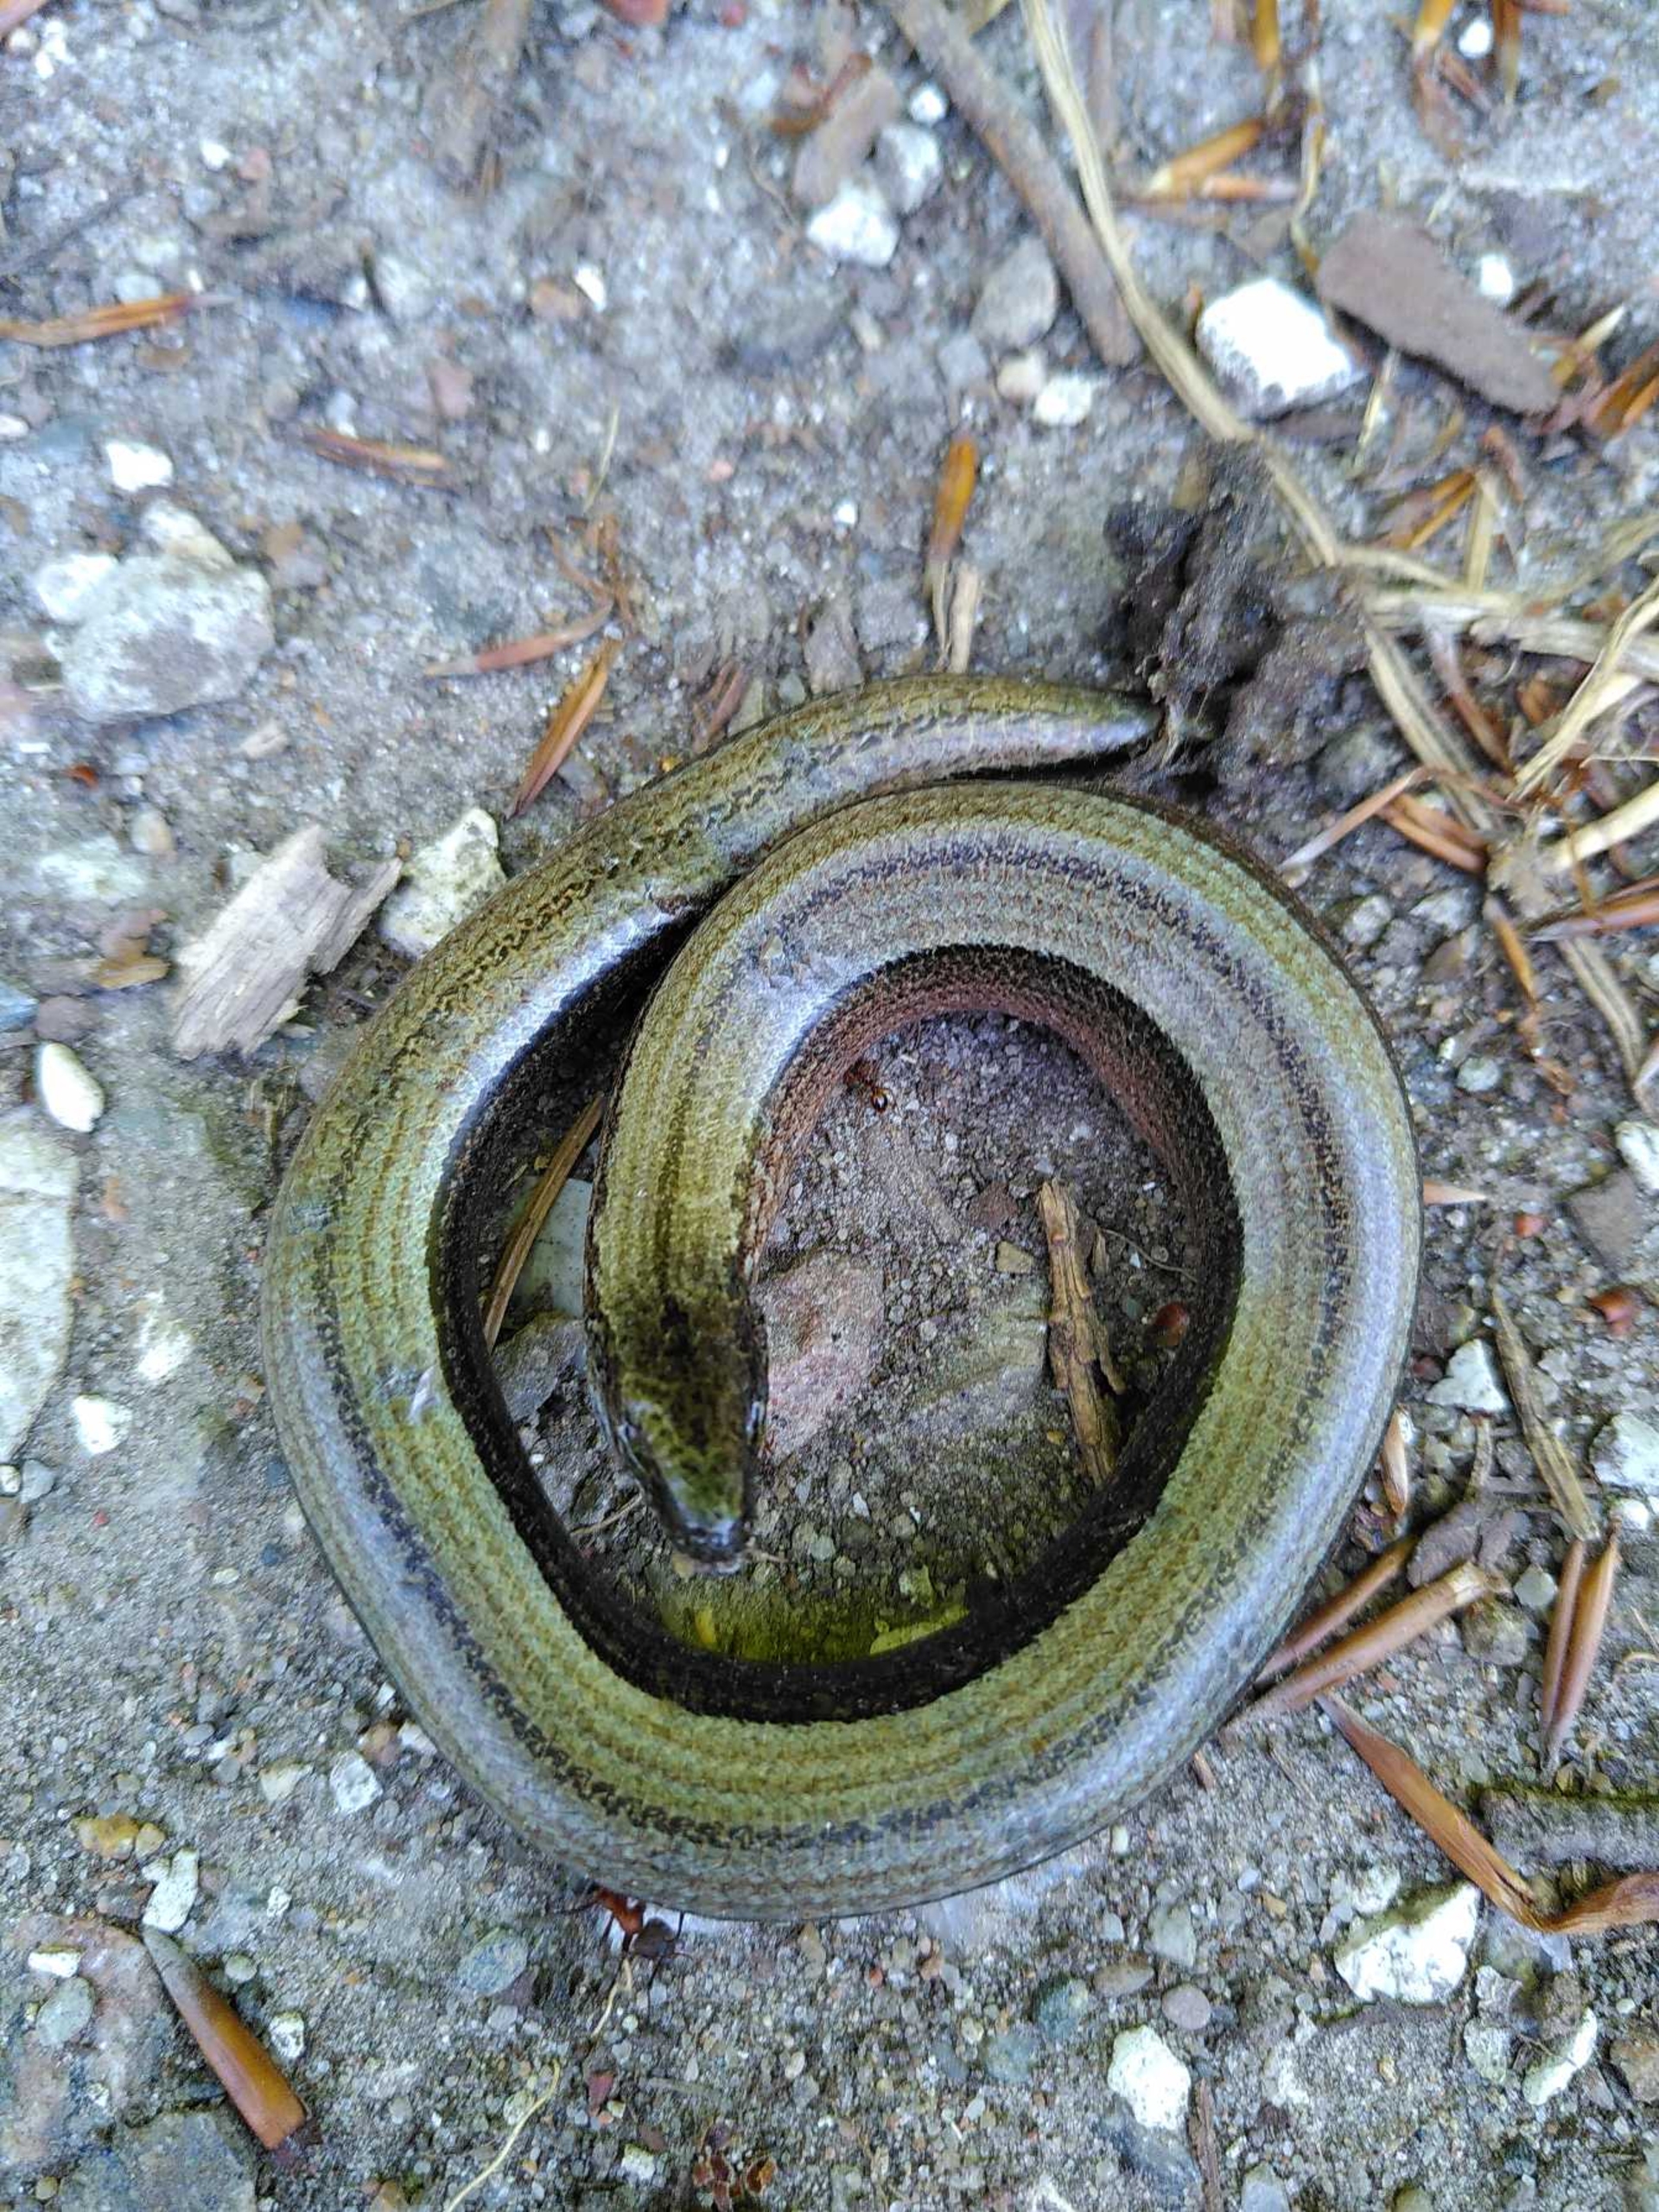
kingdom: Animalia
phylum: Chordata
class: Squamata
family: Anguidae
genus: Anguis
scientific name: Anguis fragilis
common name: Stålorm
